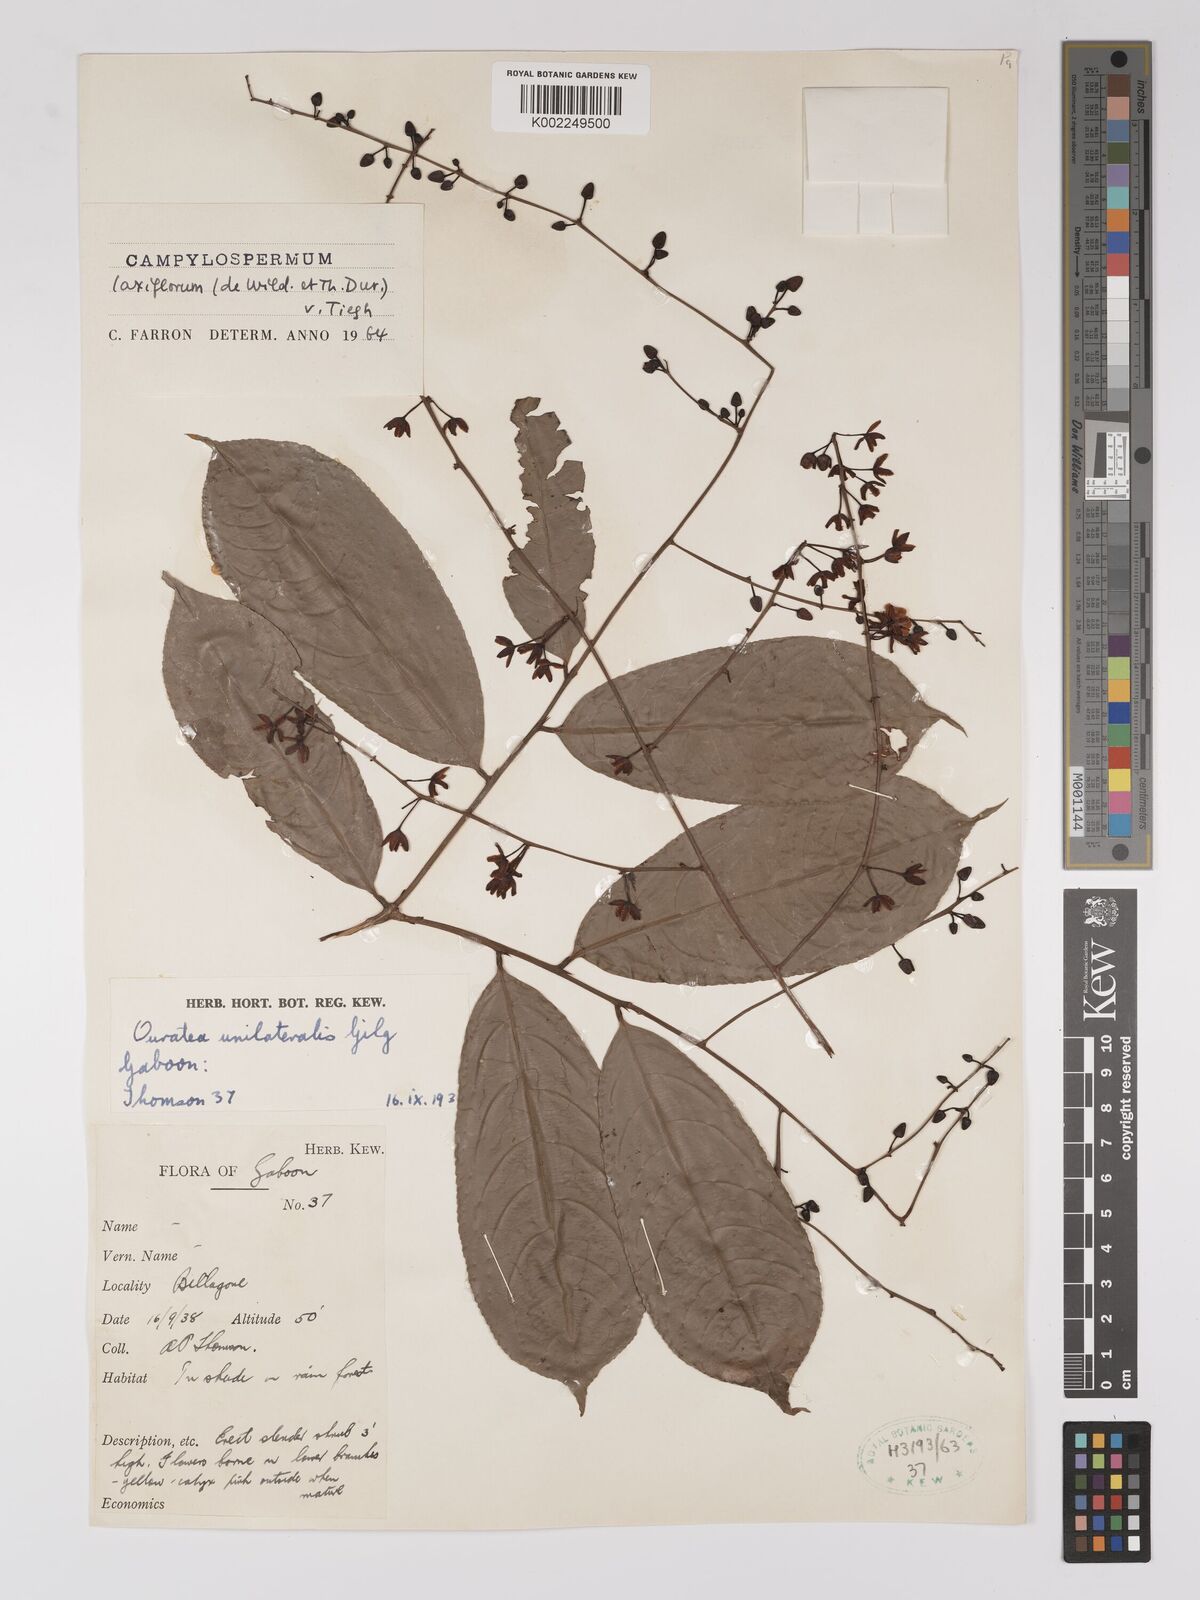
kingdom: Plantae
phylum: Tracheophyta
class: Magnoliopsida
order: Malpighiales
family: Ochnaceae
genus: Campylospermum
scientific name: Campylospermum laxiflorum
